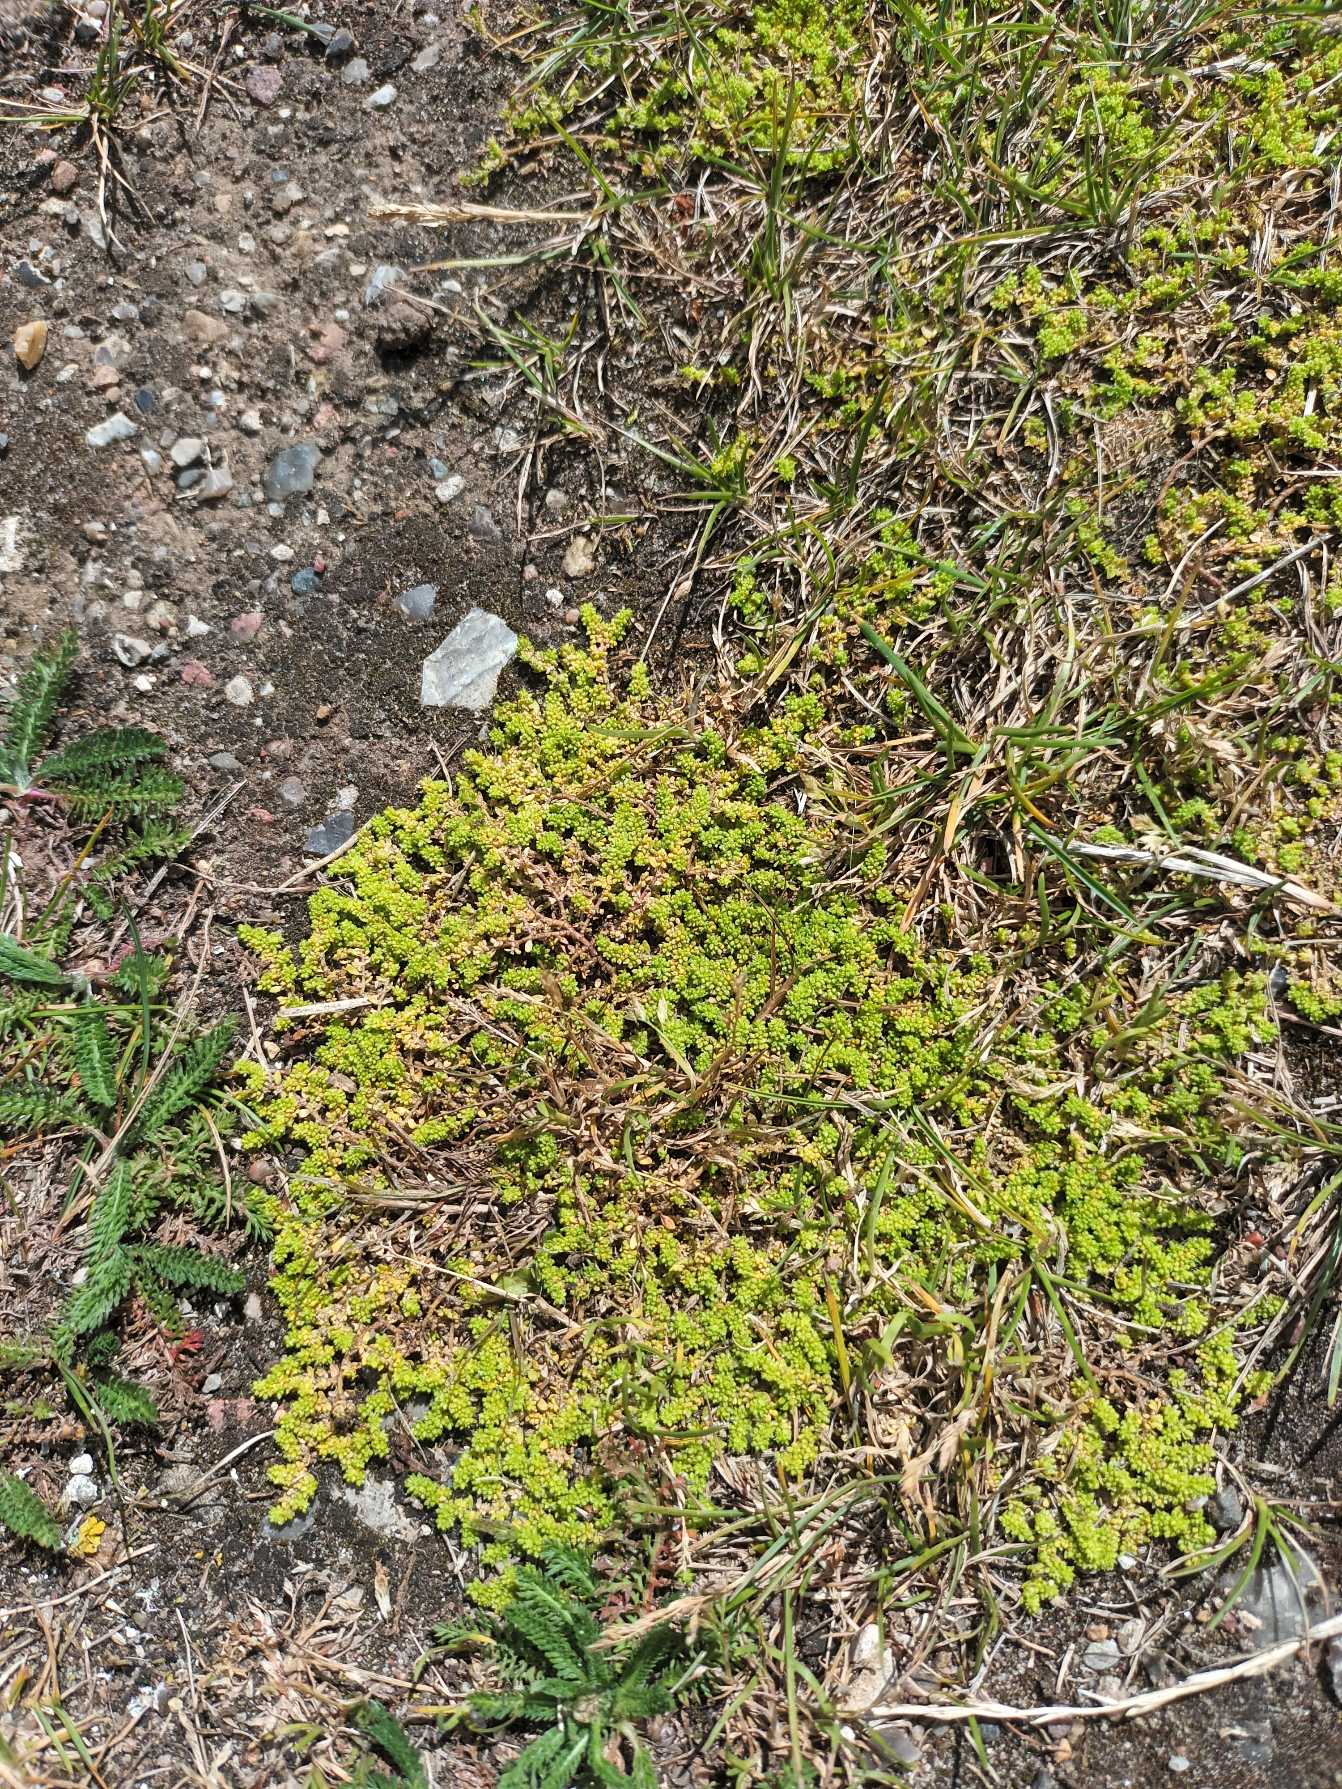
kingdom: Plantae
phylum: Tracheophyta
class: Magnoliopsida
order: Caryophyllales
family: Caryophyllaceae
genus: Herniaria
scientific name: Herniaria glabra
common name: Brudurt
